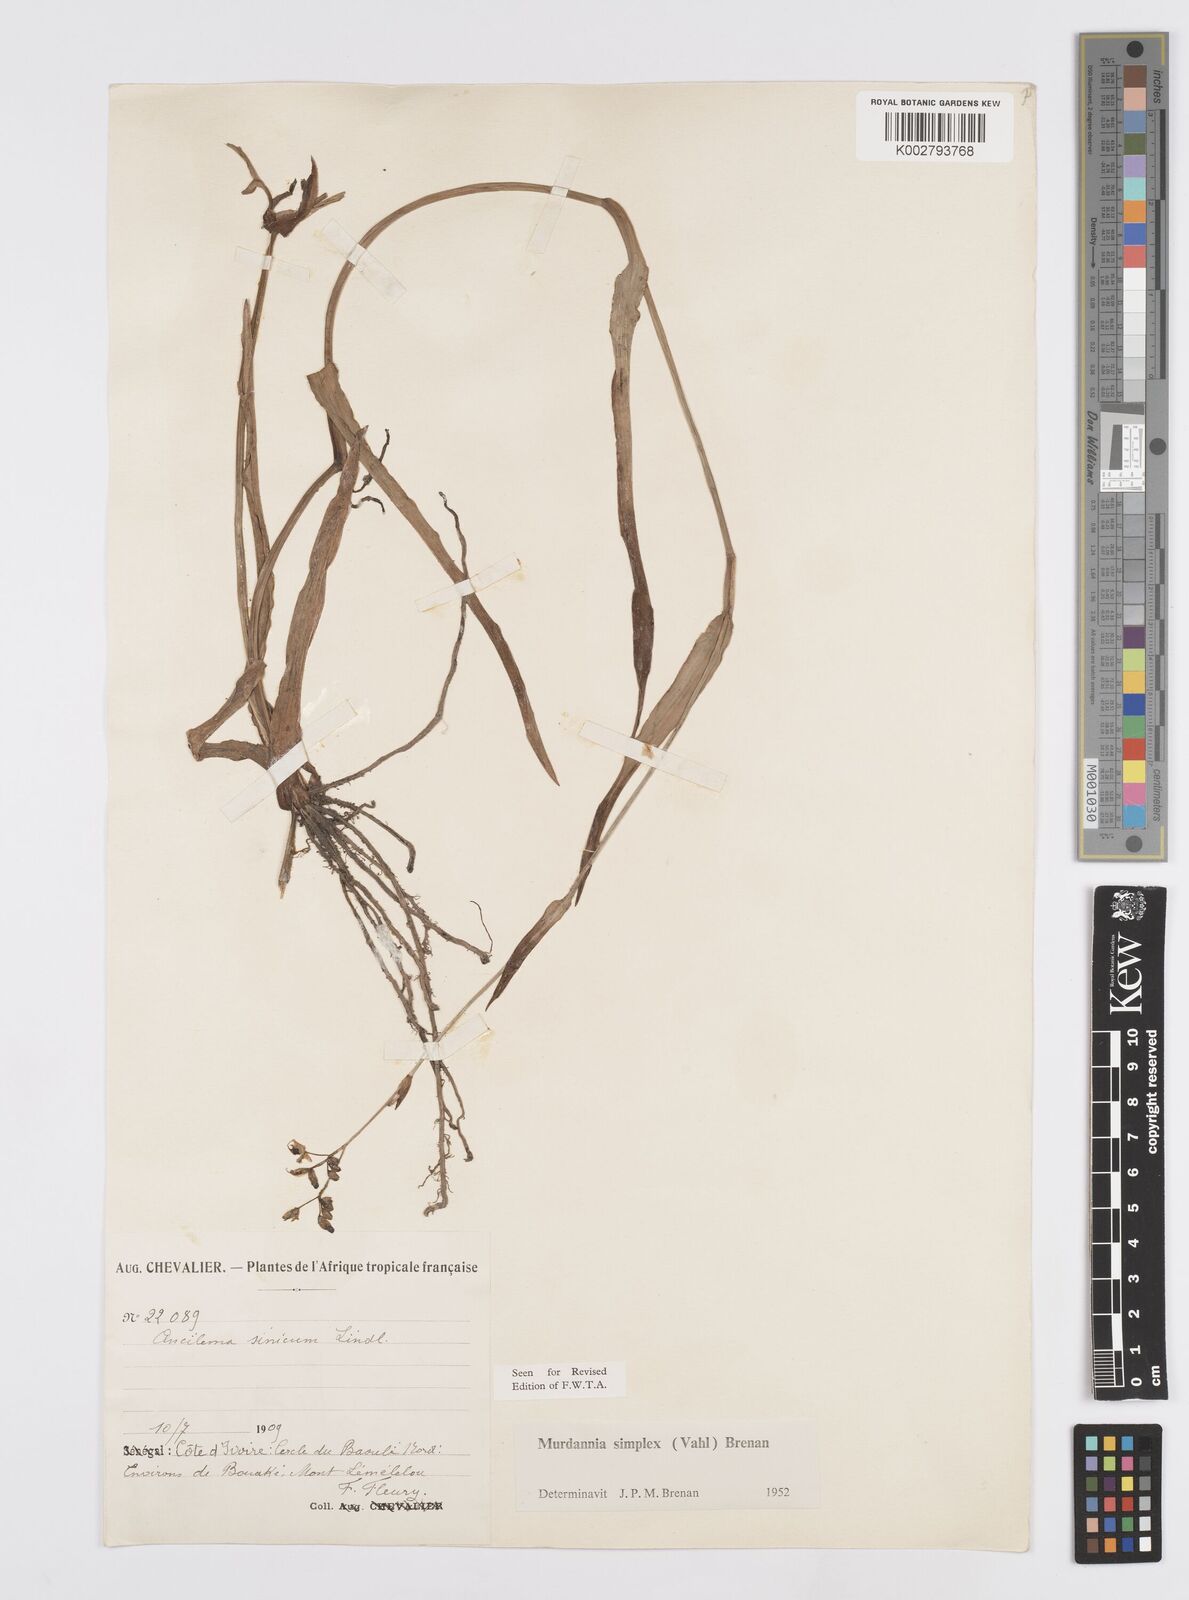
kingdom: Plantae
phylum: Tracheophyta
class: Liliopsida
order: Commelinales
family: Commelinaceae
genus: Murdannia
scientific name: Murdannia simplex
